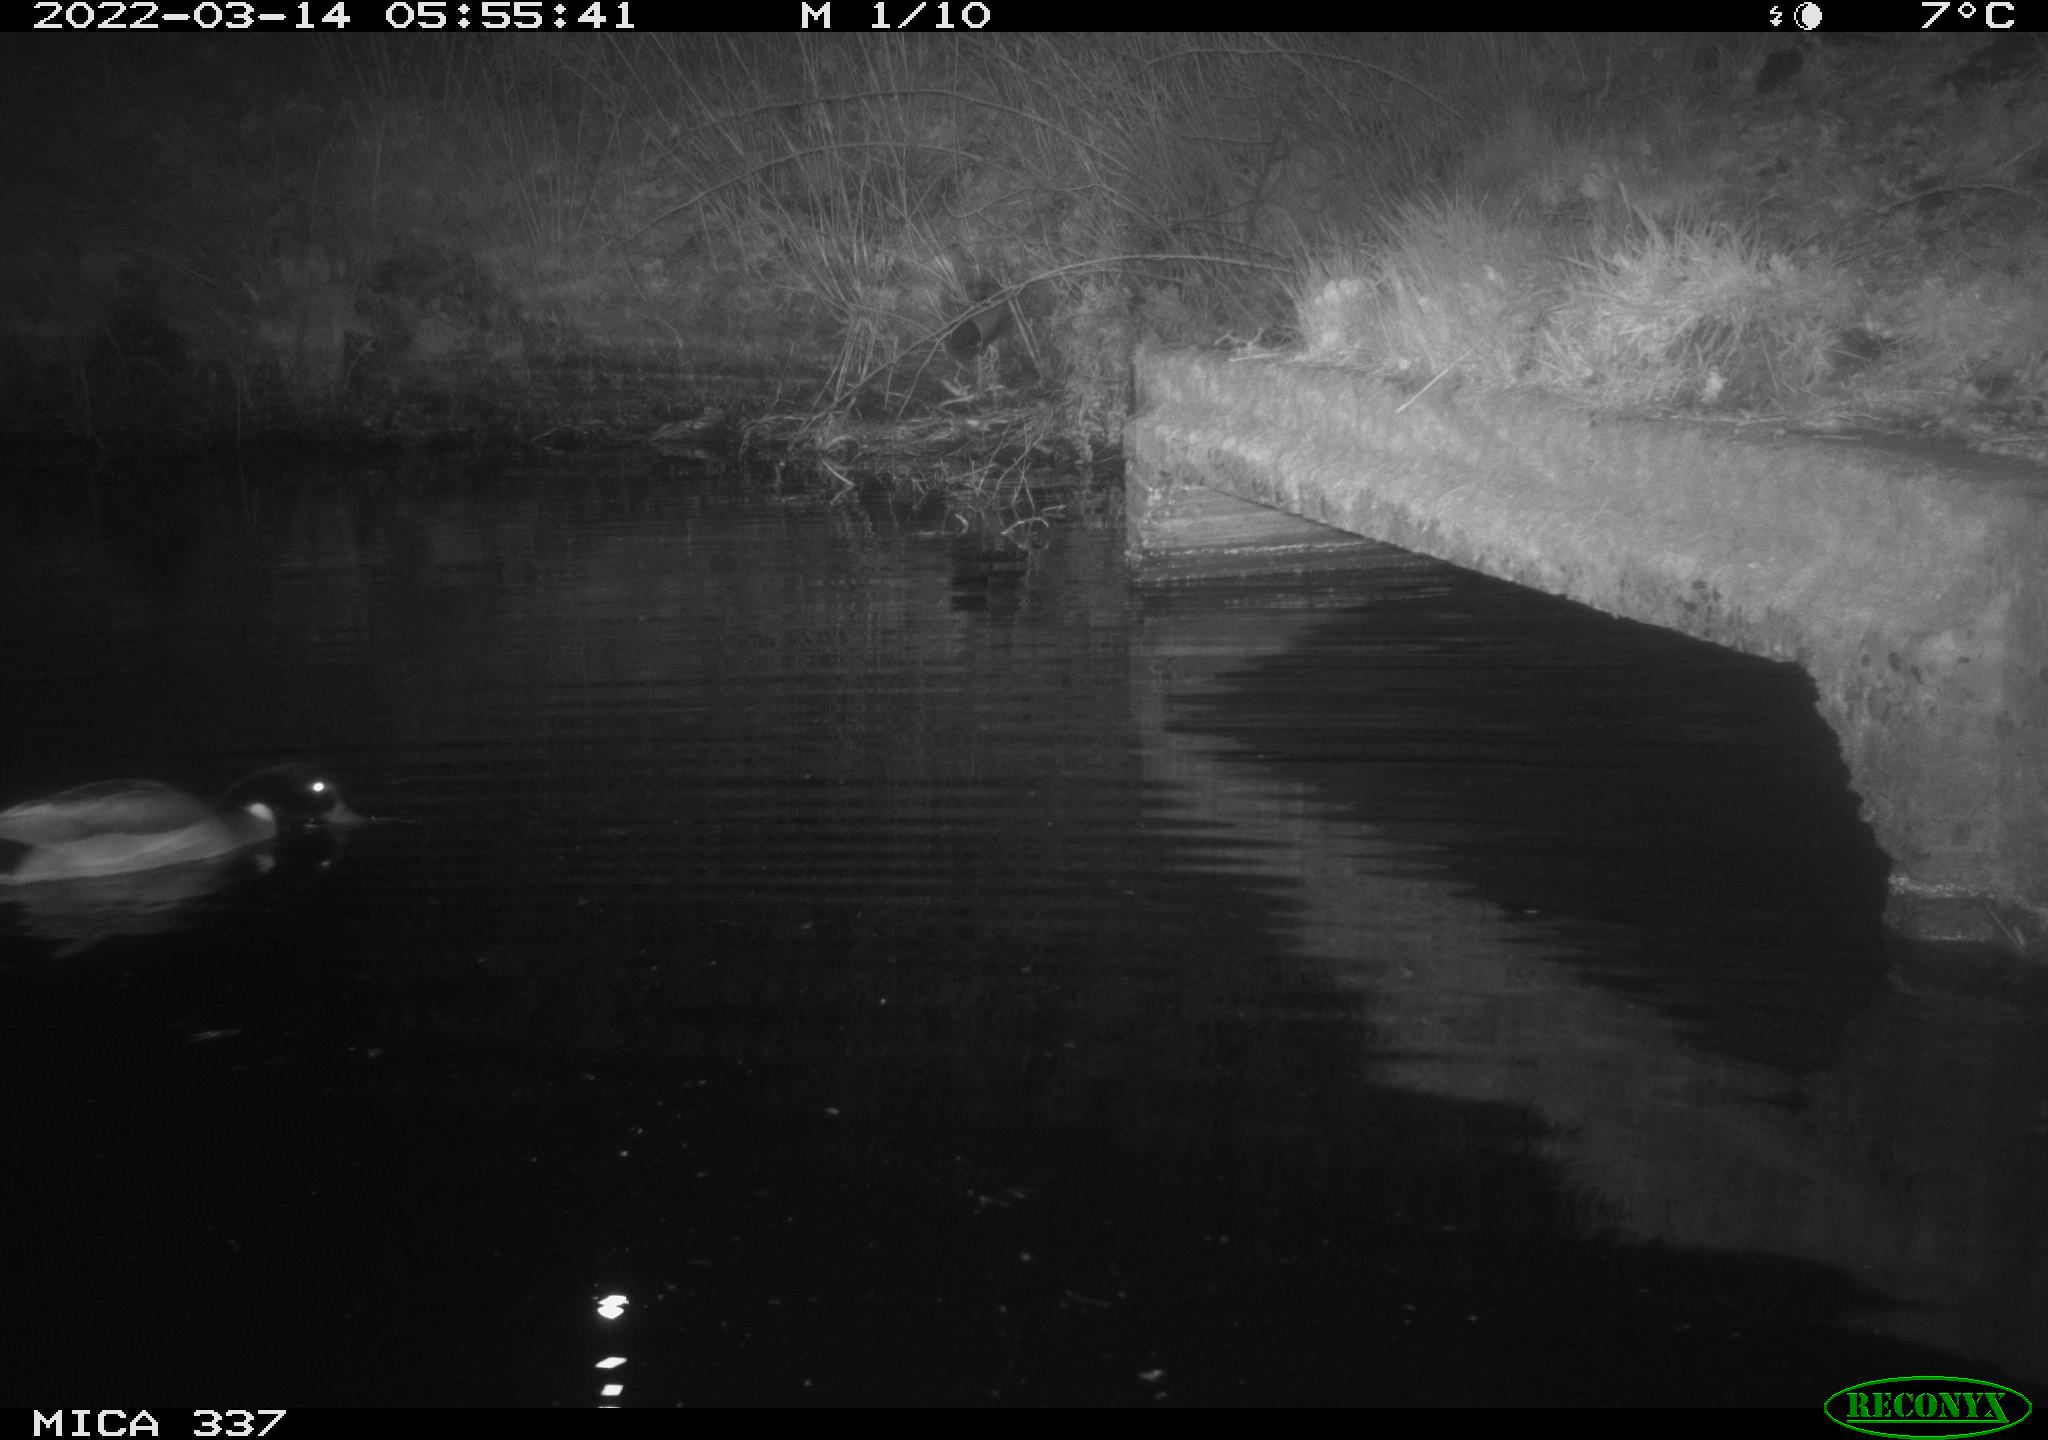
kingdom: Animalia
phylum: Chordata
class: Aves
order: Anseriformes
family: Anatidae
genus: Anas
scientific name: Anas platyrhynchos
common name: Mallard
